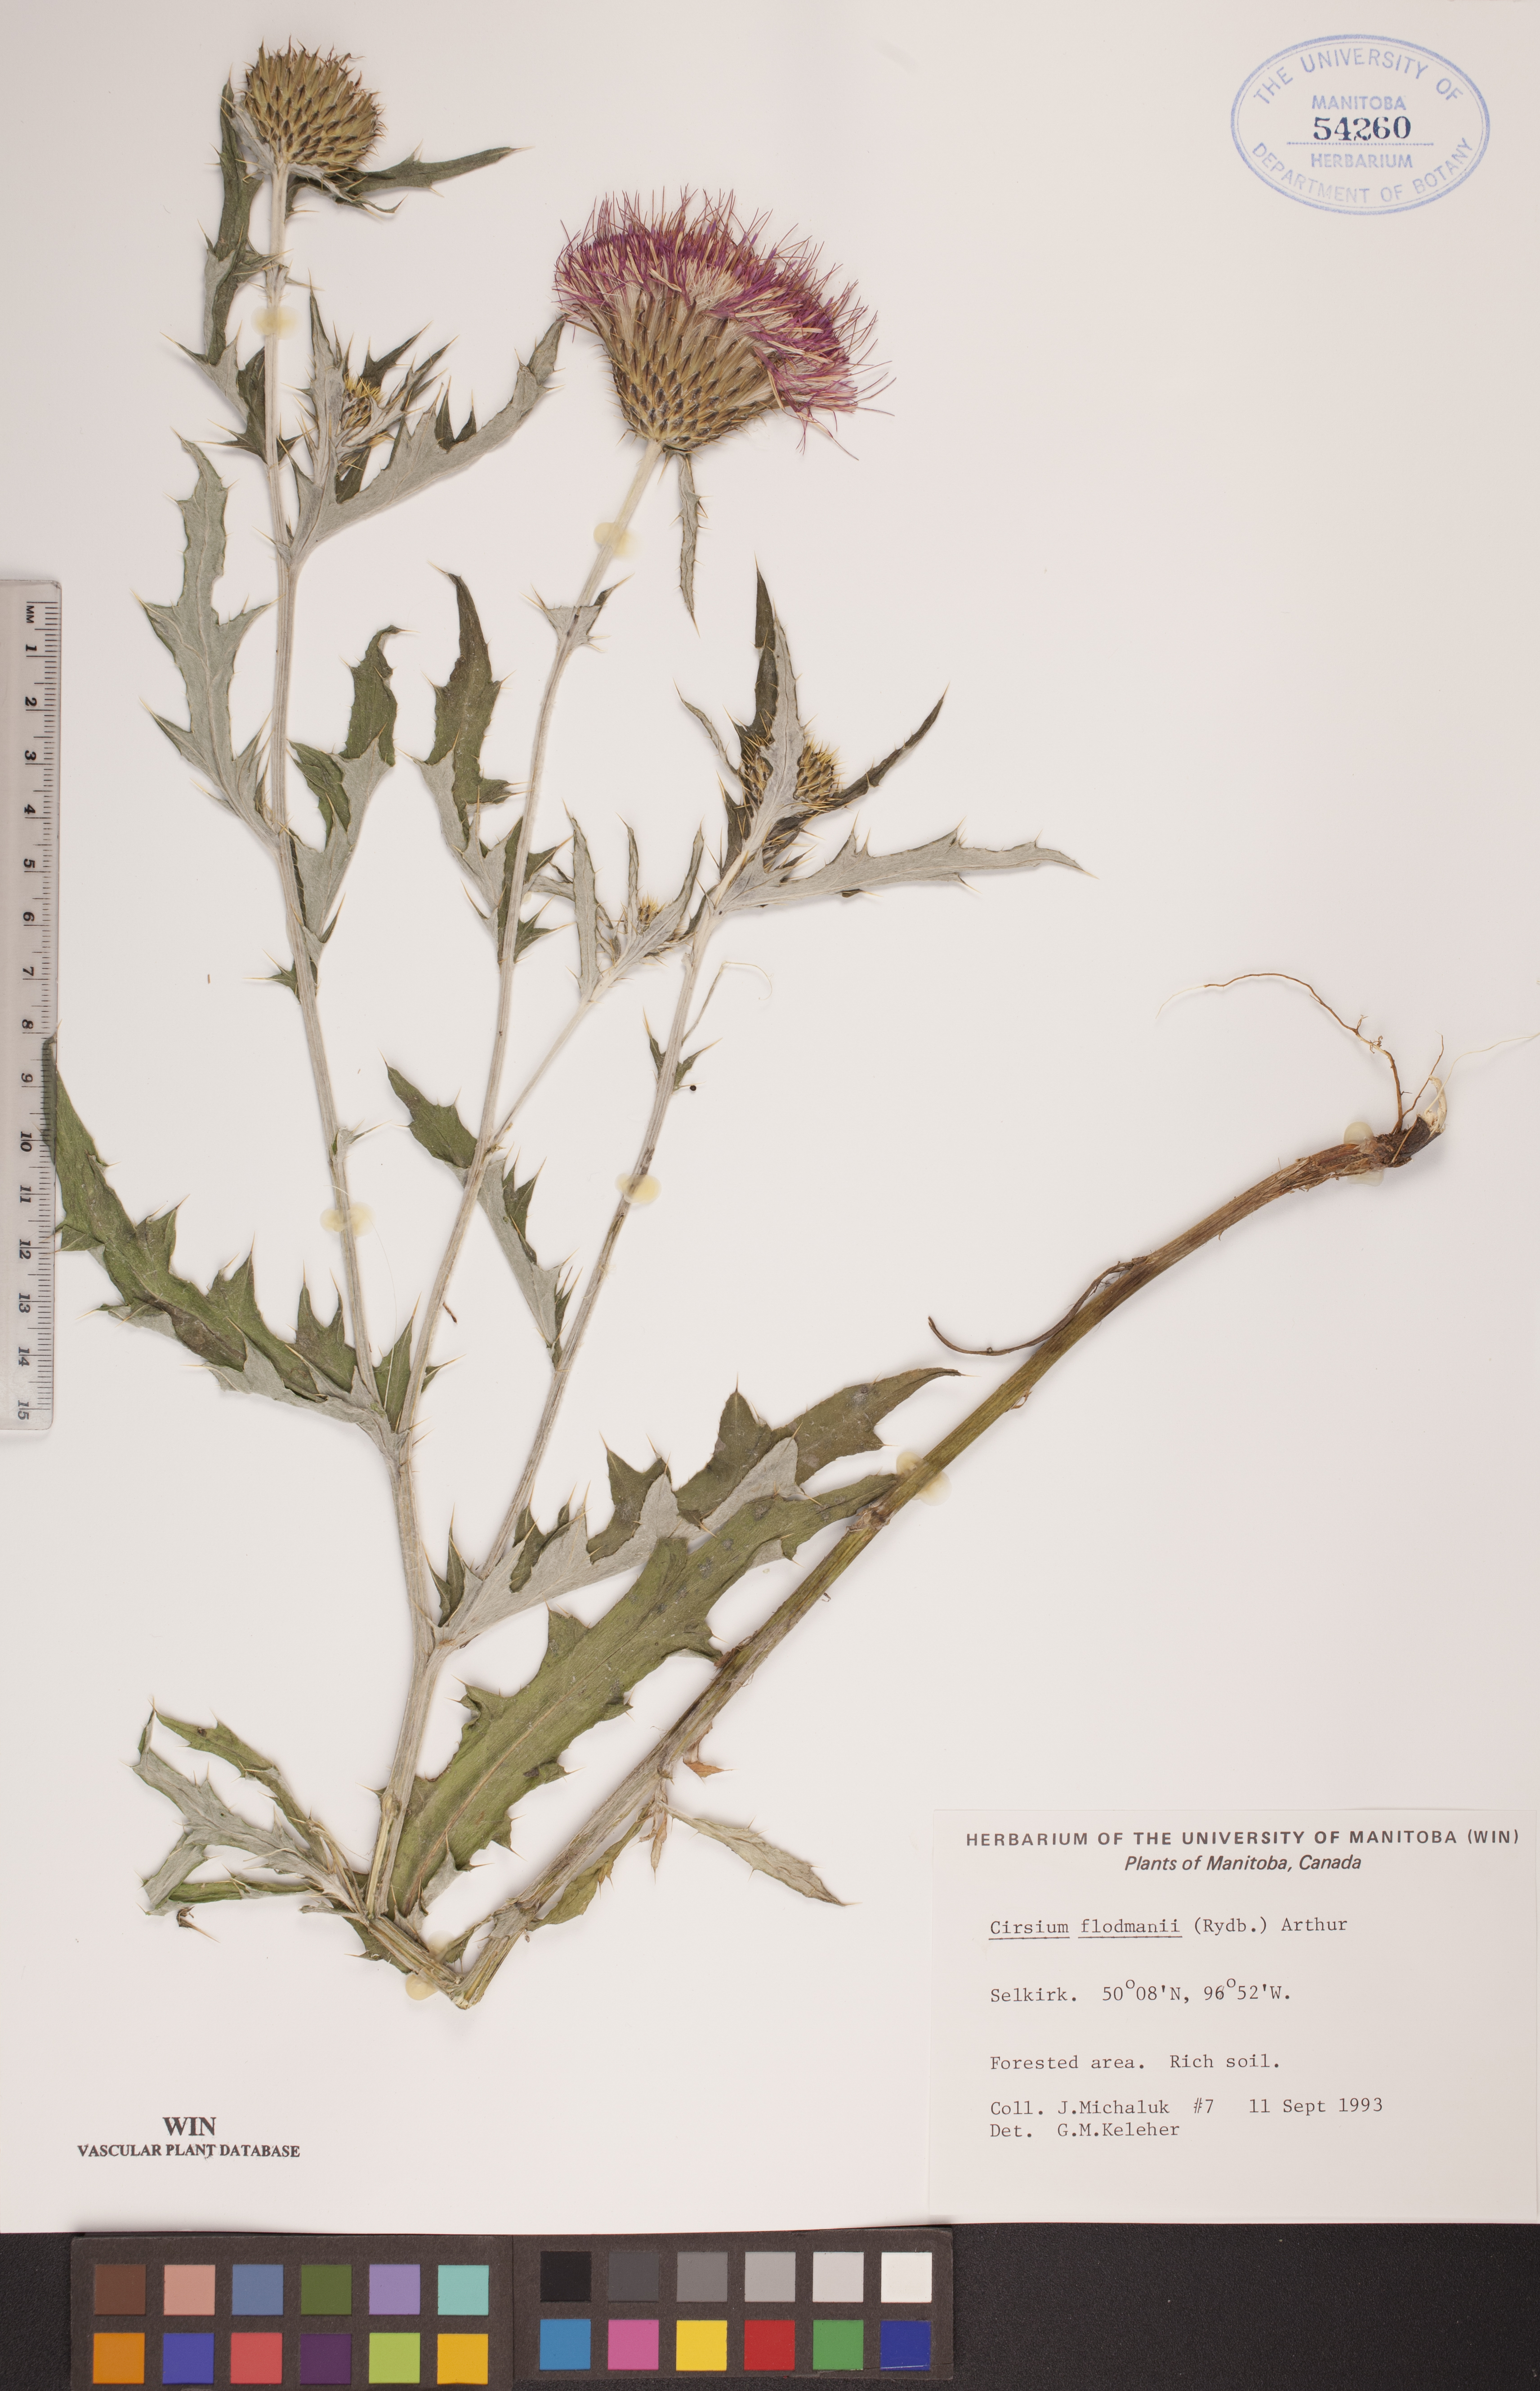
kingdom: Plantae
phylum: Tracheophyta
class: Magnoliopsida
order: Asterales
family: Asteraceae
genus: Cirsium
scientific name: Cirsium flodmanii
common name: Flodman's thistle
